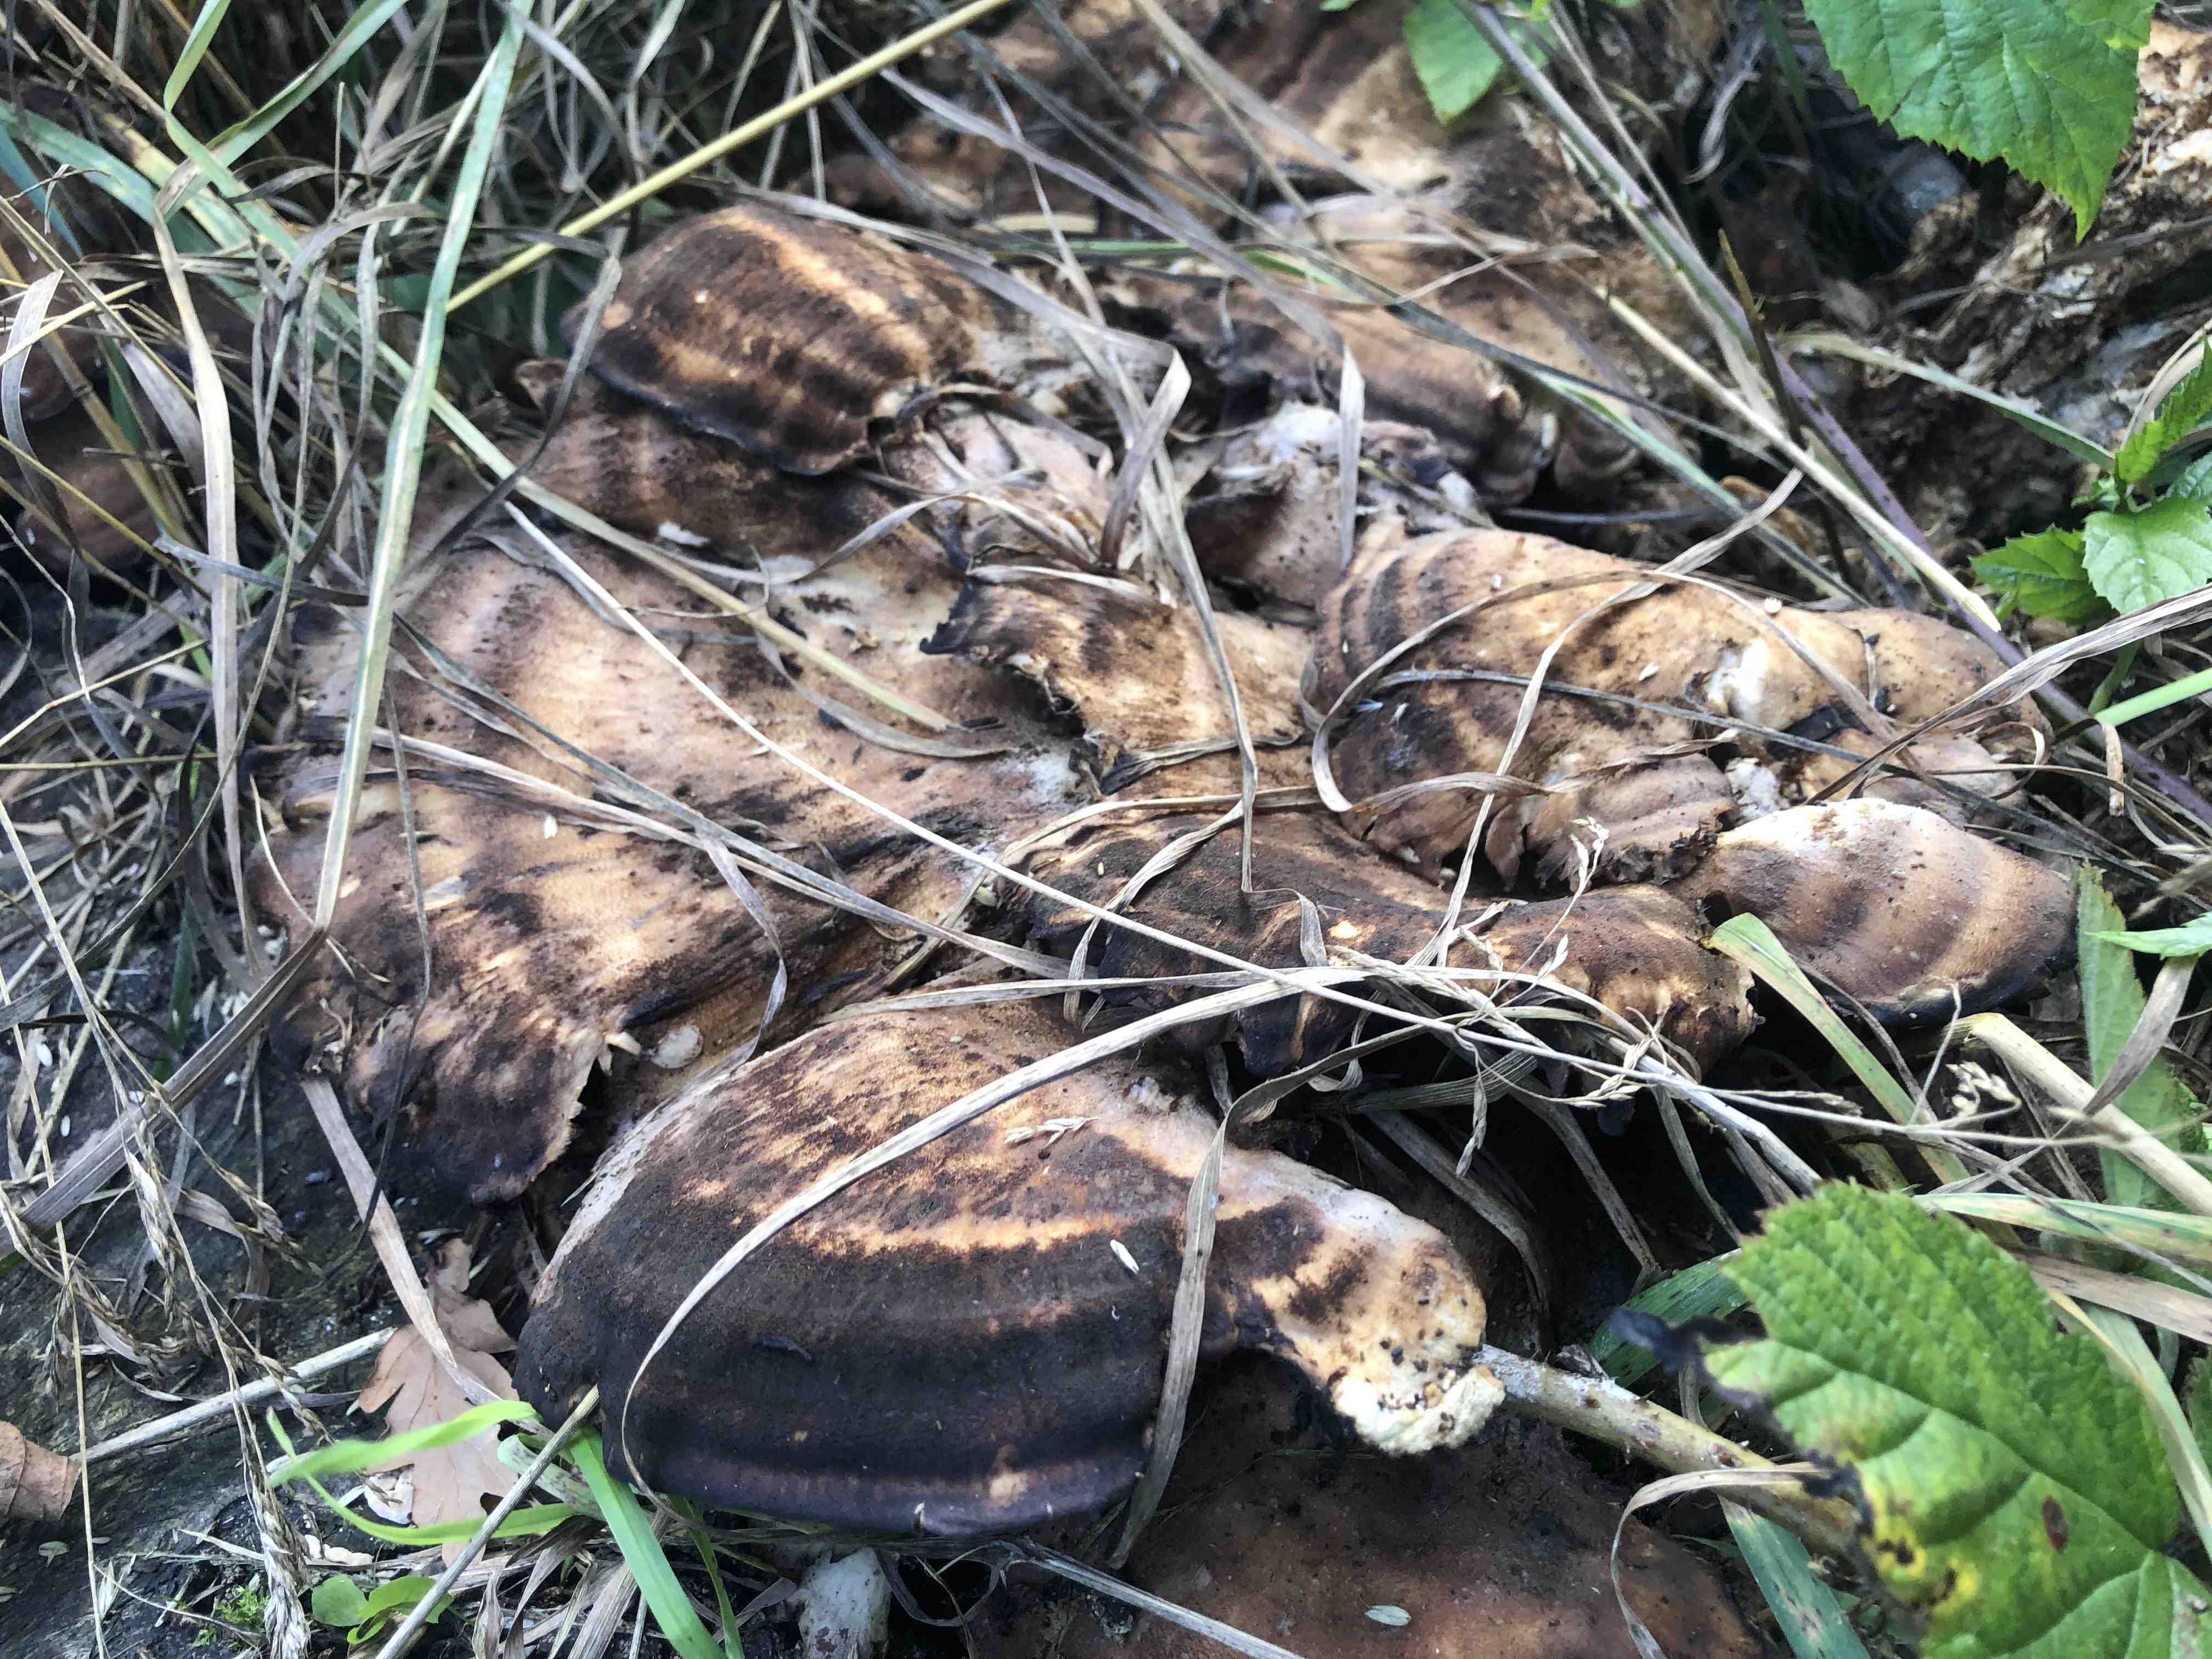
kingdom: Fungi
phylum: Basidiomycota
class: Agaricomycetes
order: Polyporales
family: Meripilaceae
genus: Meripilus
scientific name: Meripilus giganteus
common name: kæmpeporesvamp
